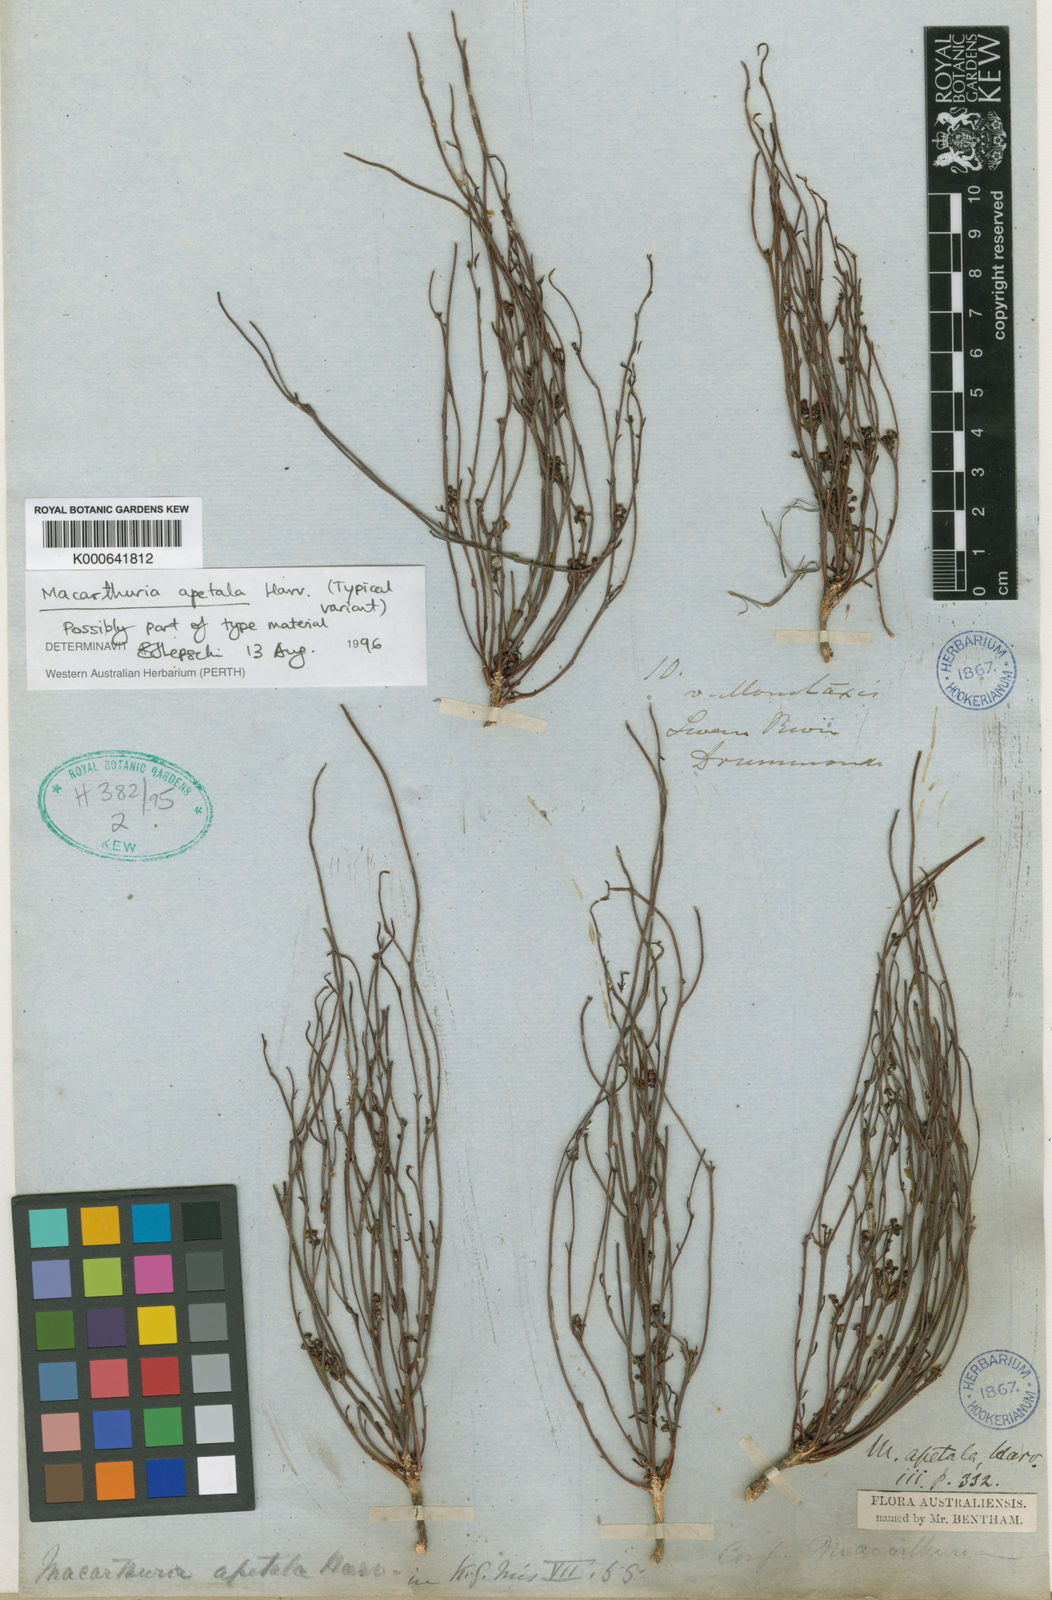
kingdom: Plantae
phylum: Tracheophyta
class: Magnoliopsida
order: Caryophyllales
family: Macarthuriaceae
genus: Macarthuria
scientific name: Macarthuria apetala
